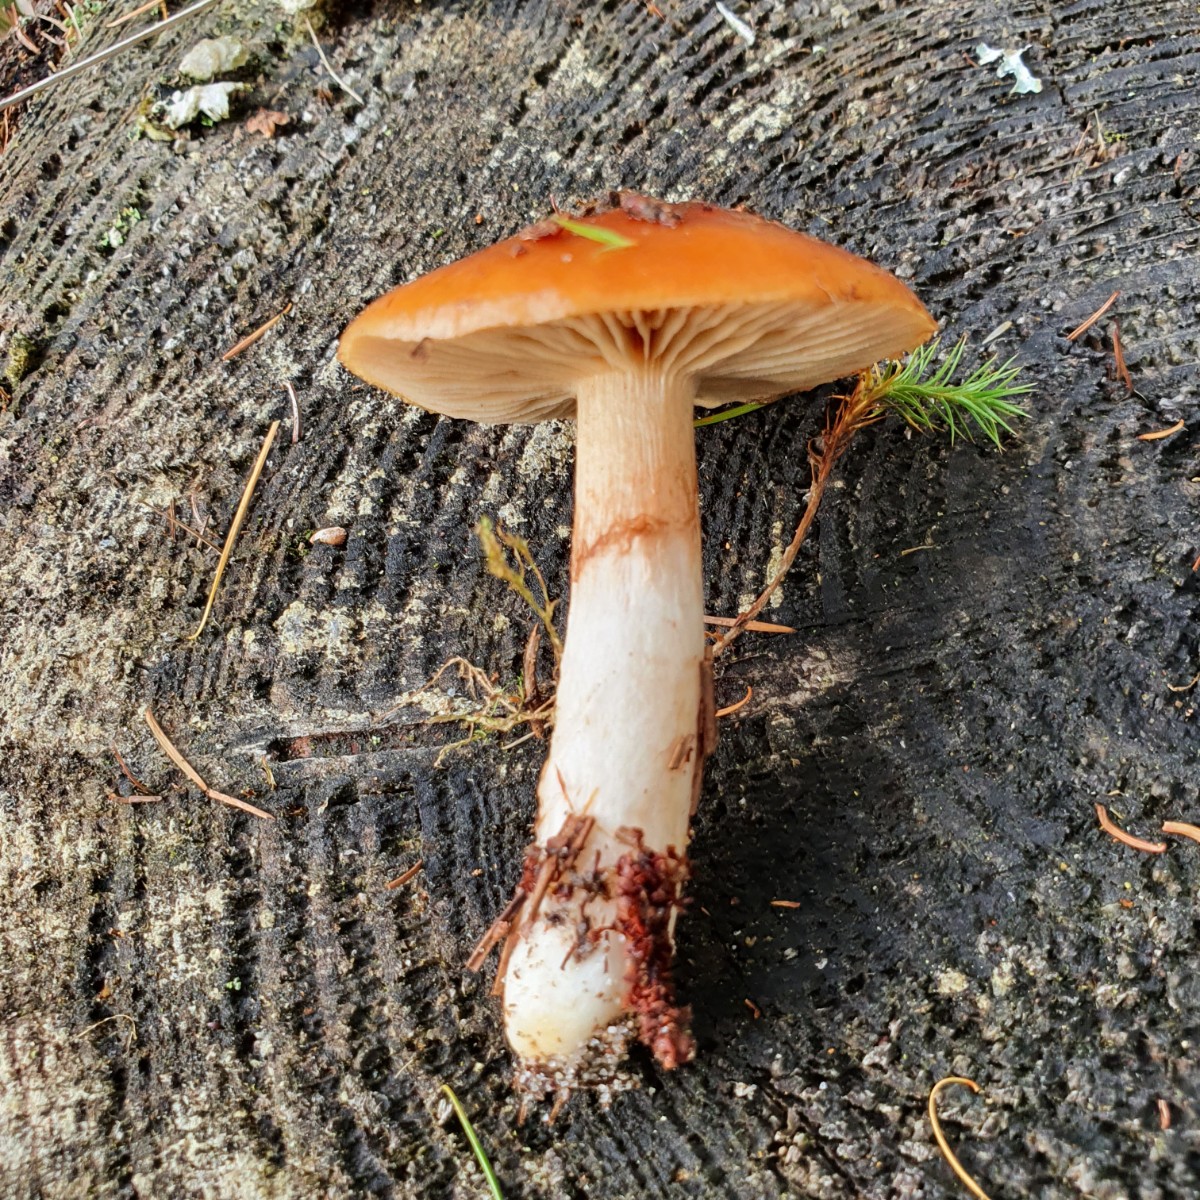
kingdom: Fungi
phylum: Basidiomycota
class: Agaricomycetes
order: Agaricales
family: Cortinariaceae
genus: Cortinarius
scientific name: Cortinarius mucosus
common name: kastaniebrun slørhat
